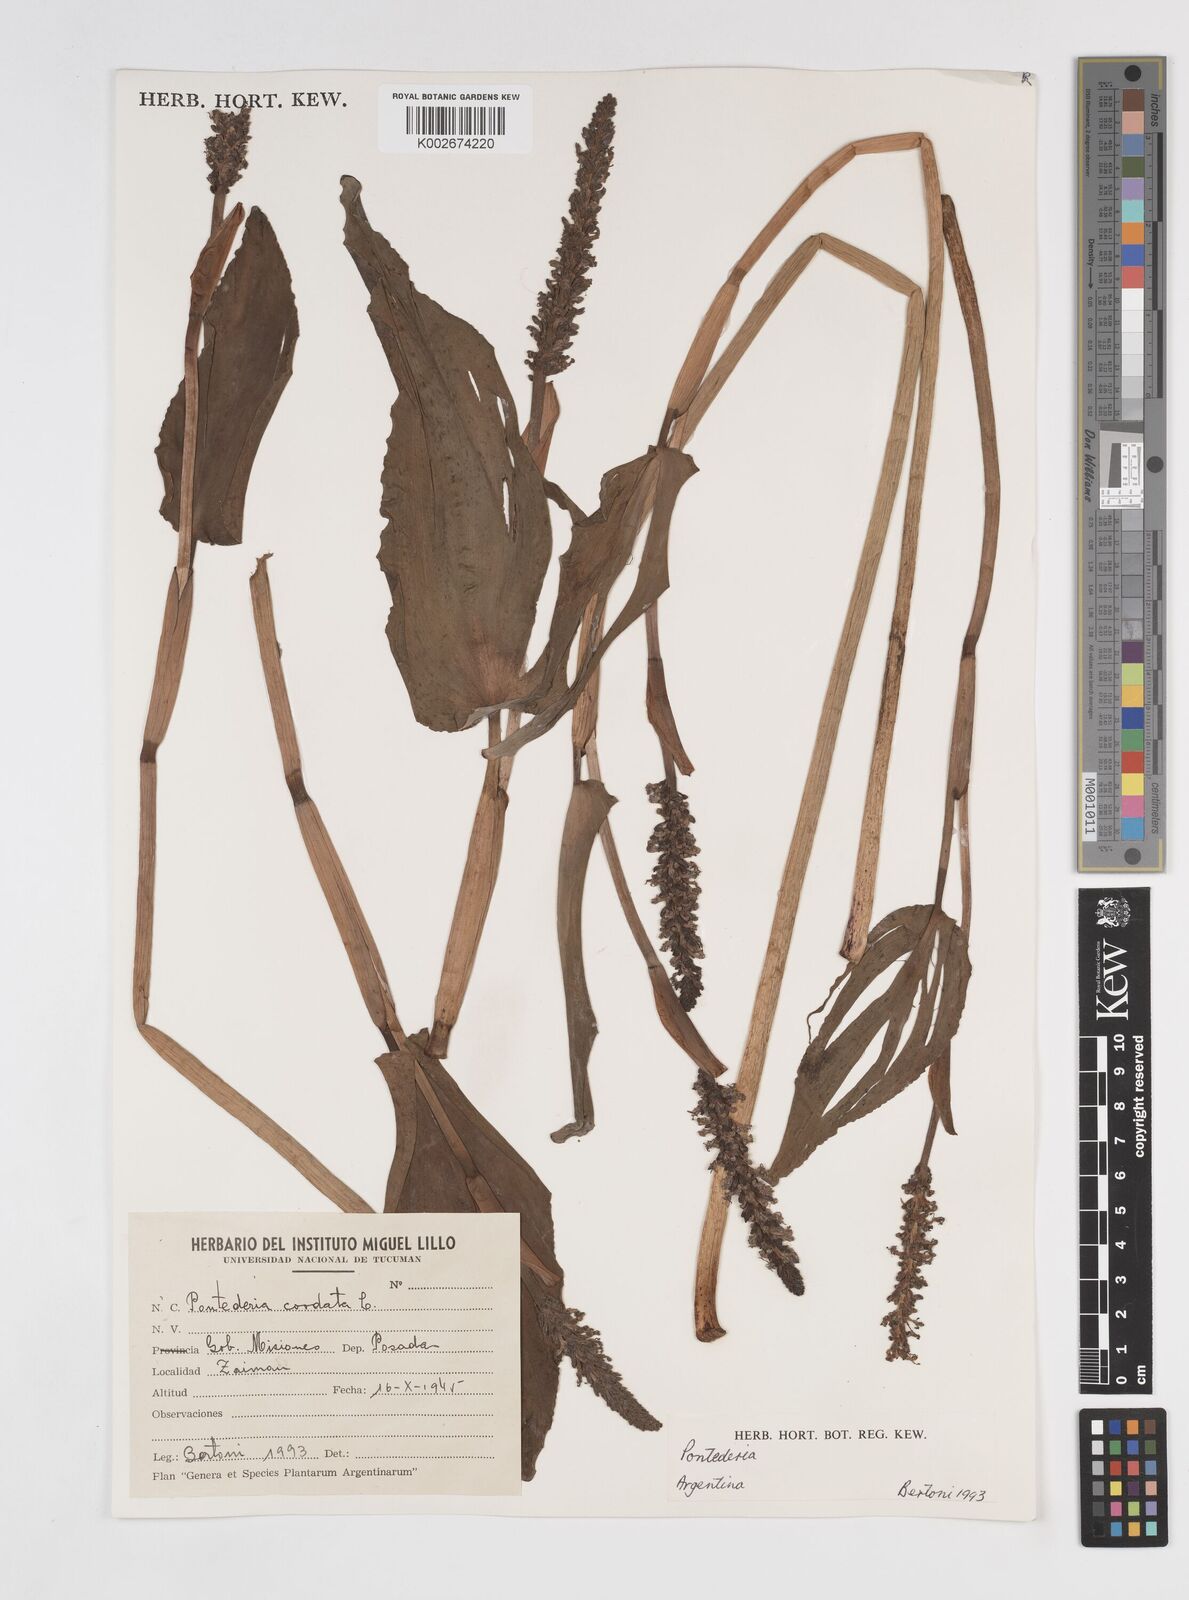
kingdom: Plantae
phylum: Tracheophyta
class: Liliopsida
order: Commelinales
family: Pontederiaceae
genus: Pontederia
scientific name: Pontederia
